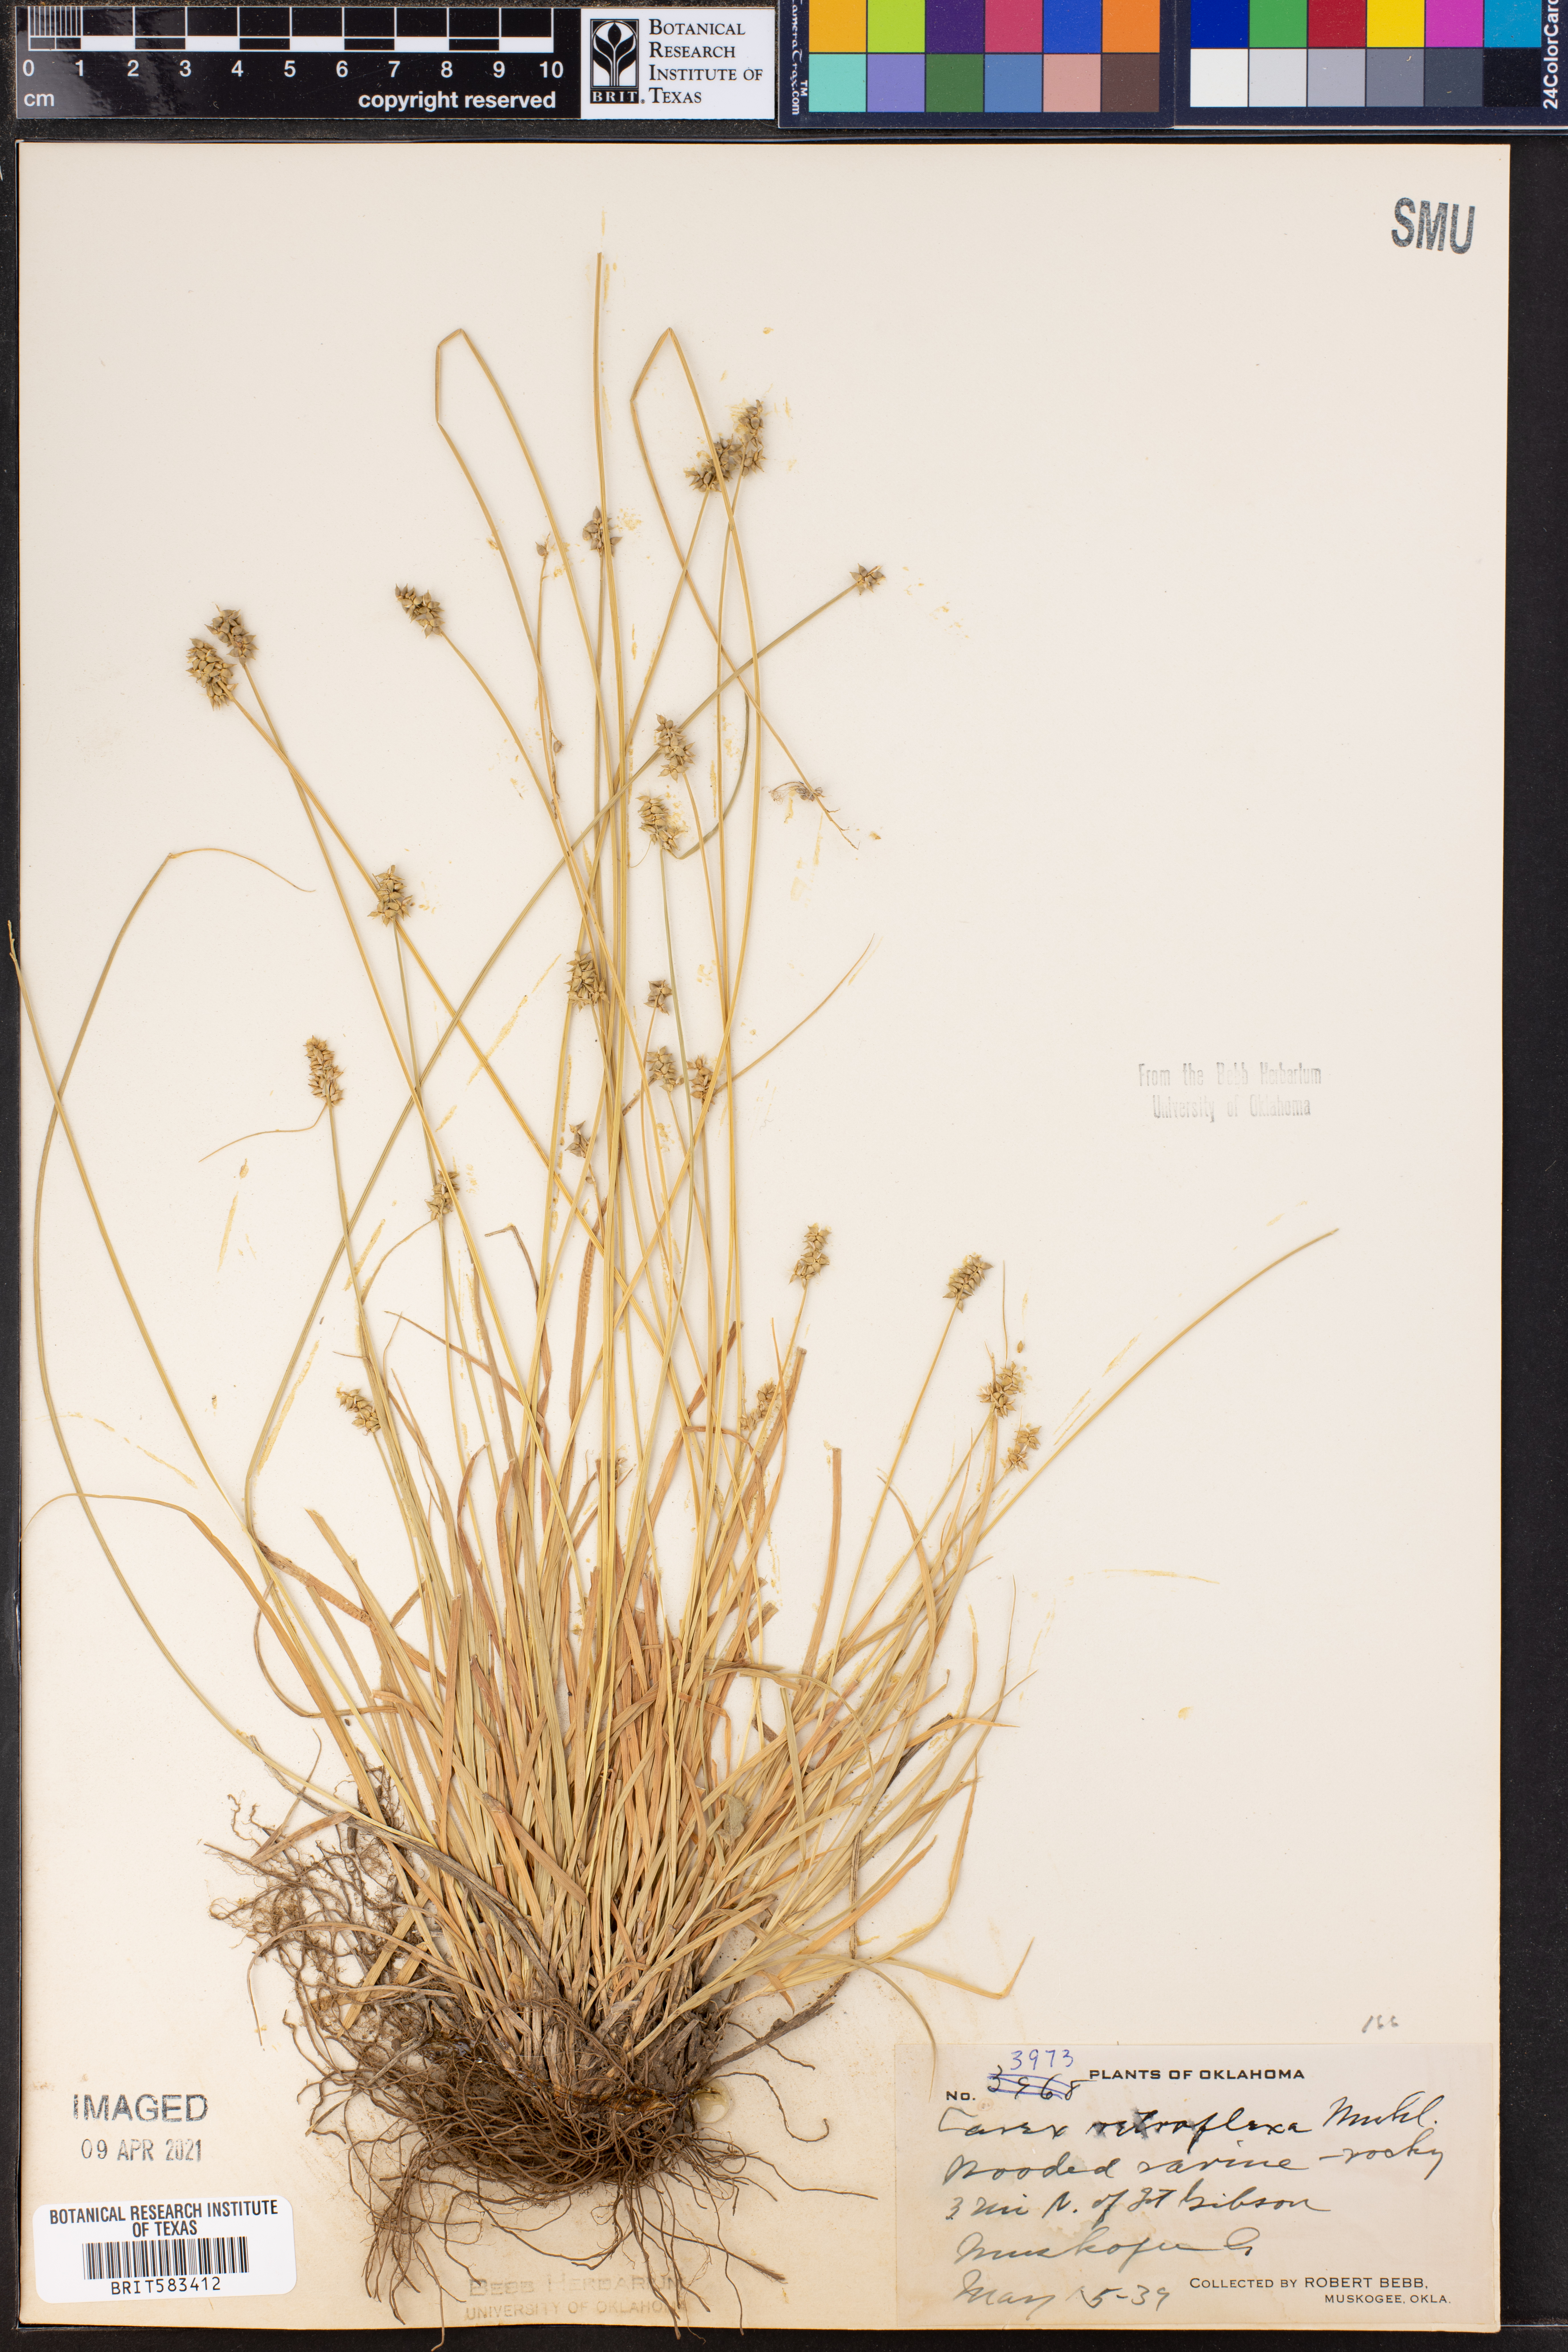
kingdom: Plantae
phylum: Tracheophyta
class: Liliopsida
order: Poales
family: Cyperaceae
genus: Carex
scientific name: Carex retroflexa
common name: Reflexed sedge
